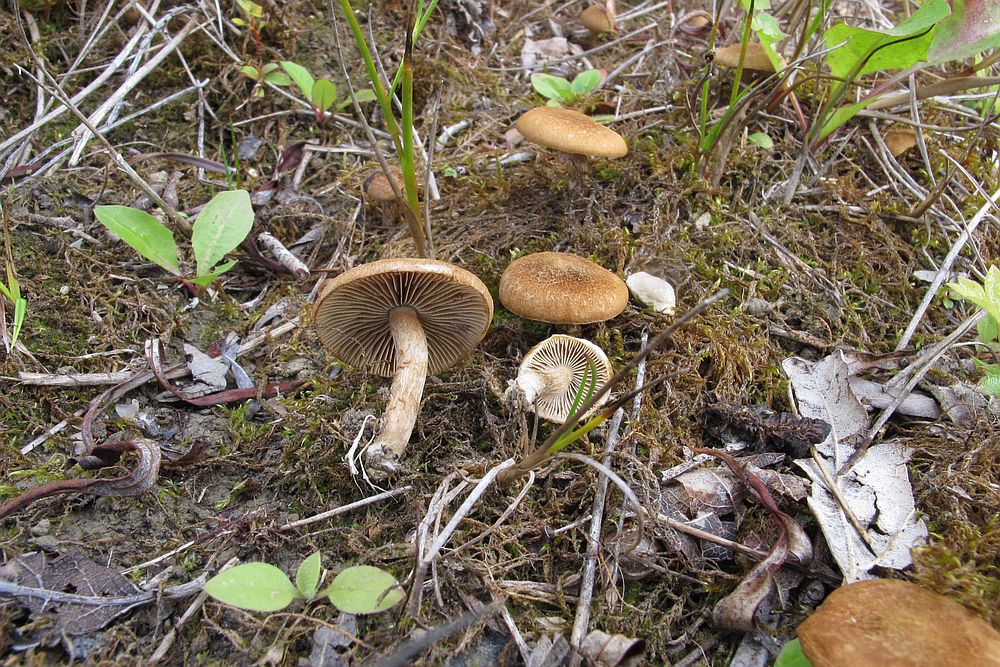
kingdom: Fungi
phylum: Basidiomycota
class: Agaricomycetes
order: Agaricales
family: Inocybaceae
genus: Inocybe
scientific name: Inocybe dulcamara
